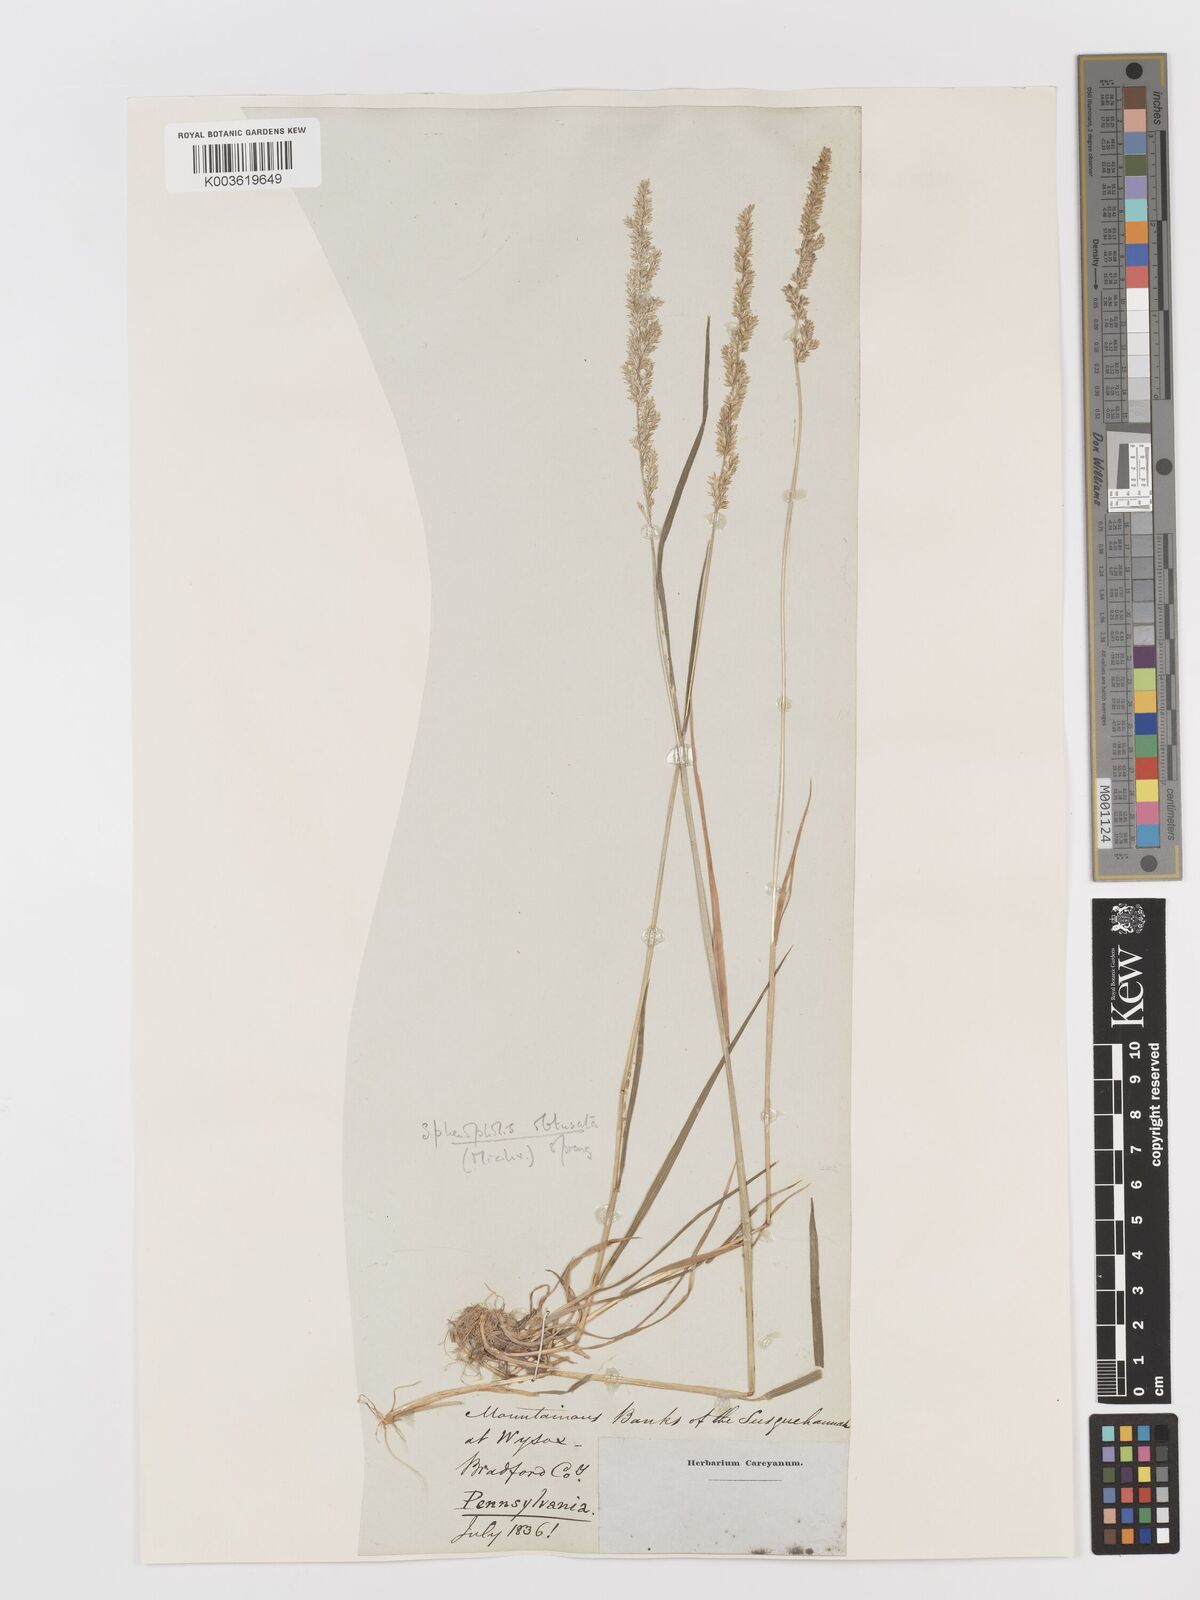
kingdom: Plantae
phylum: Tracheophyta
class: Liliopsida
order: Poales
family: Poaceae
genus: Sphenopholis
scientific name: Sphenopholis obtusata
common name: Prairie grass
